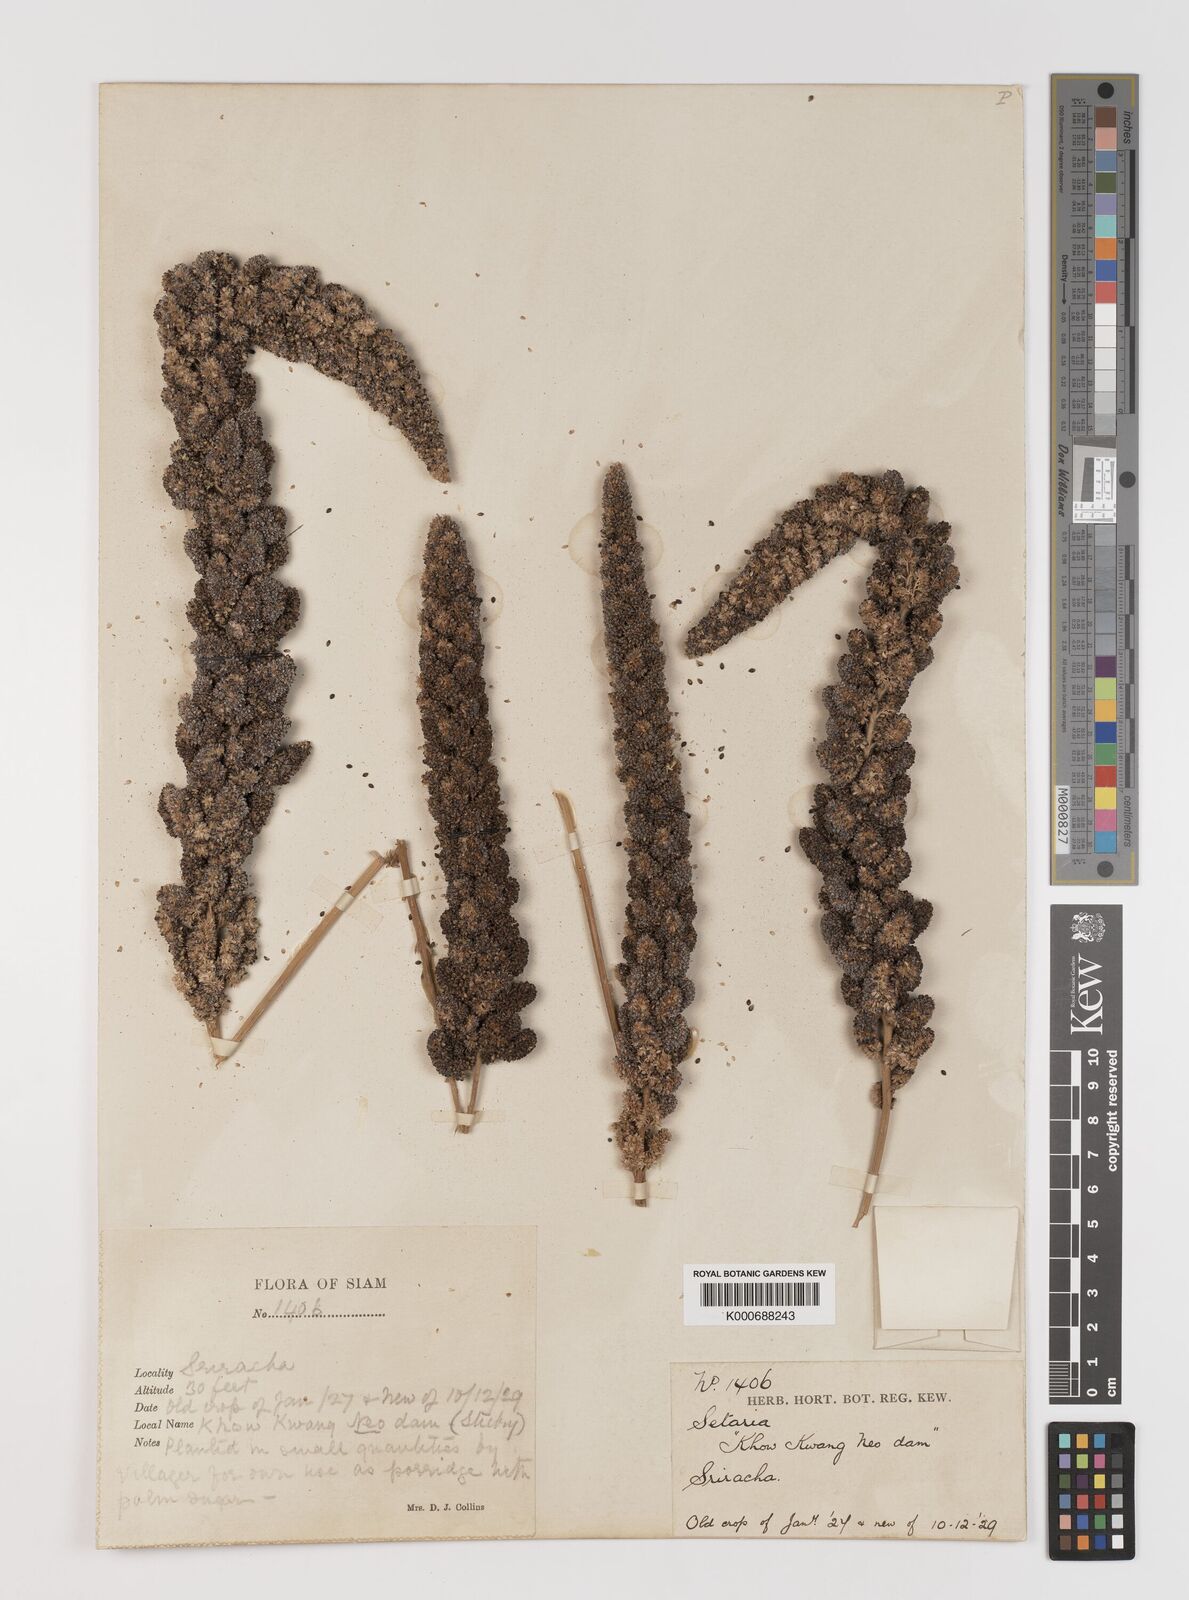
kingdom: Plantae
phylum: Tracheophyta
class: Liliopsida
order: Poales
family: Poaceae
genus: Setaria
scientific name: Setaria italica
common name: Foxtail bristle-grass
